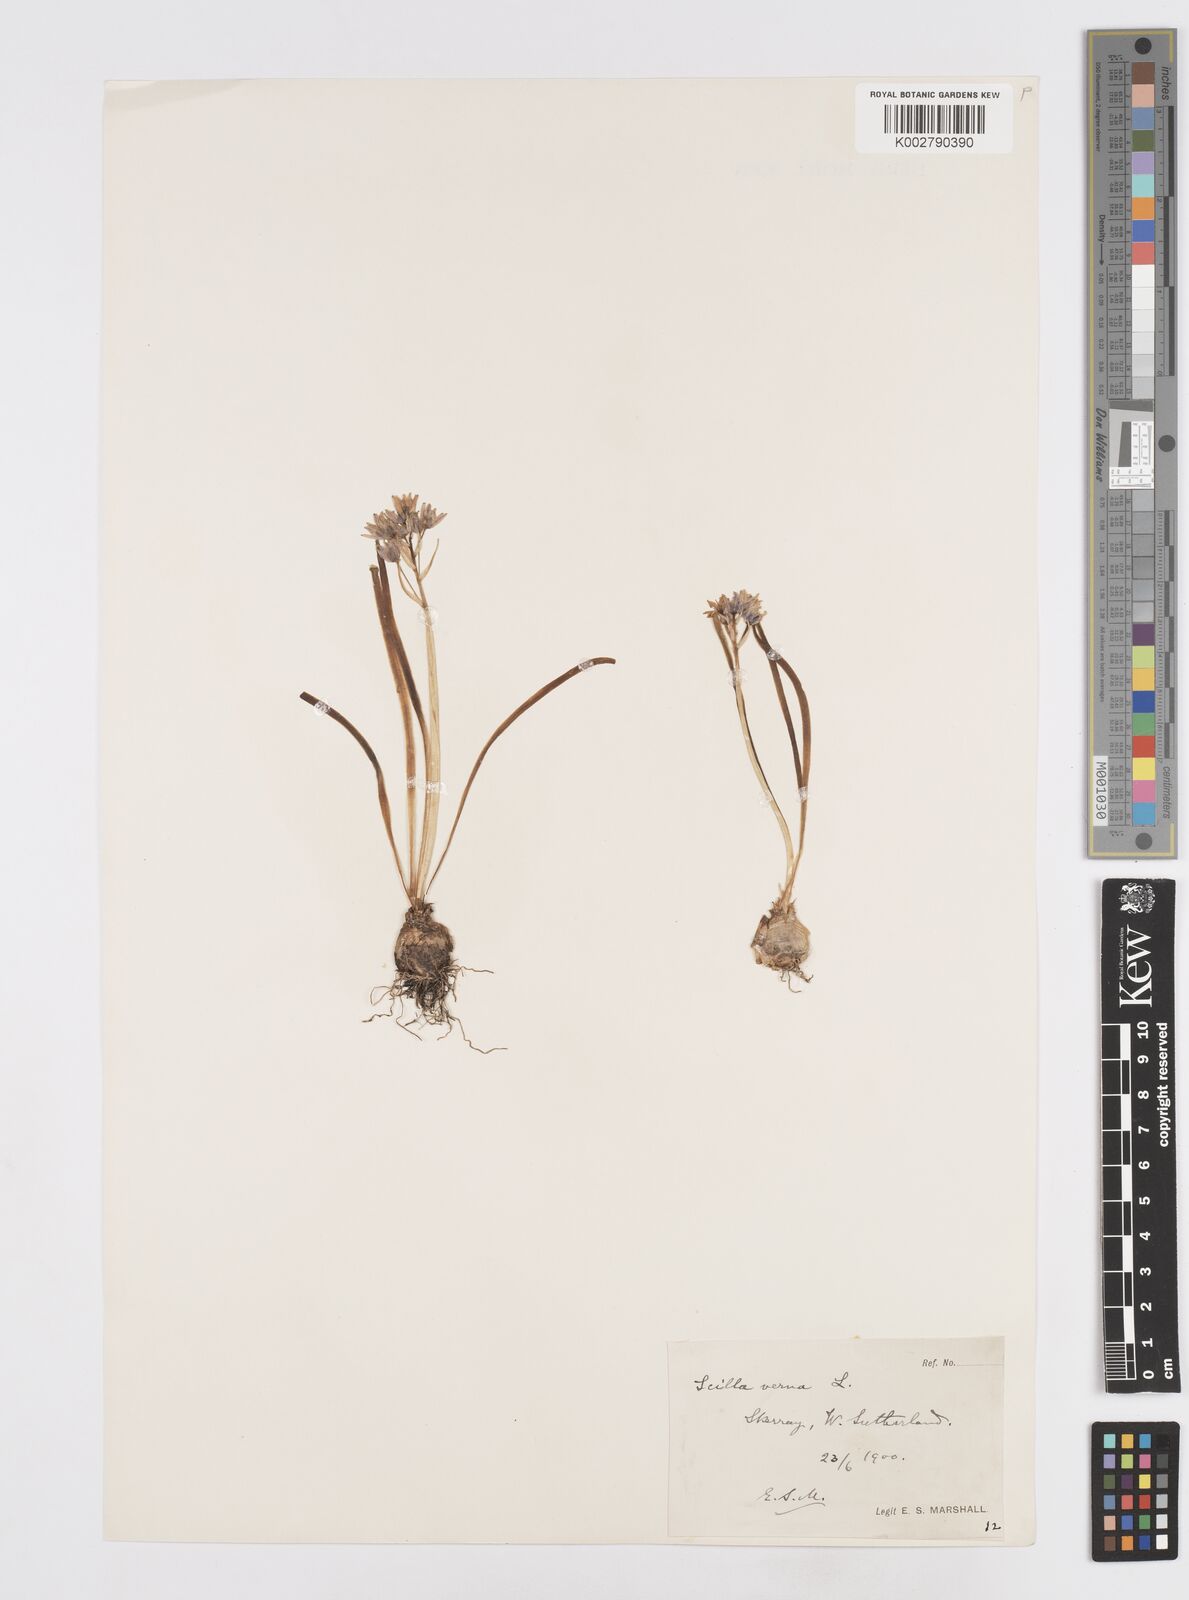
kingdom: Plantae
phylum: Tracheophyta
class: Liliopsida
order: Asparagales
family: Asparagaceae
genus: Scilla
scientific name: Scilla verna
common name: Spring squill
